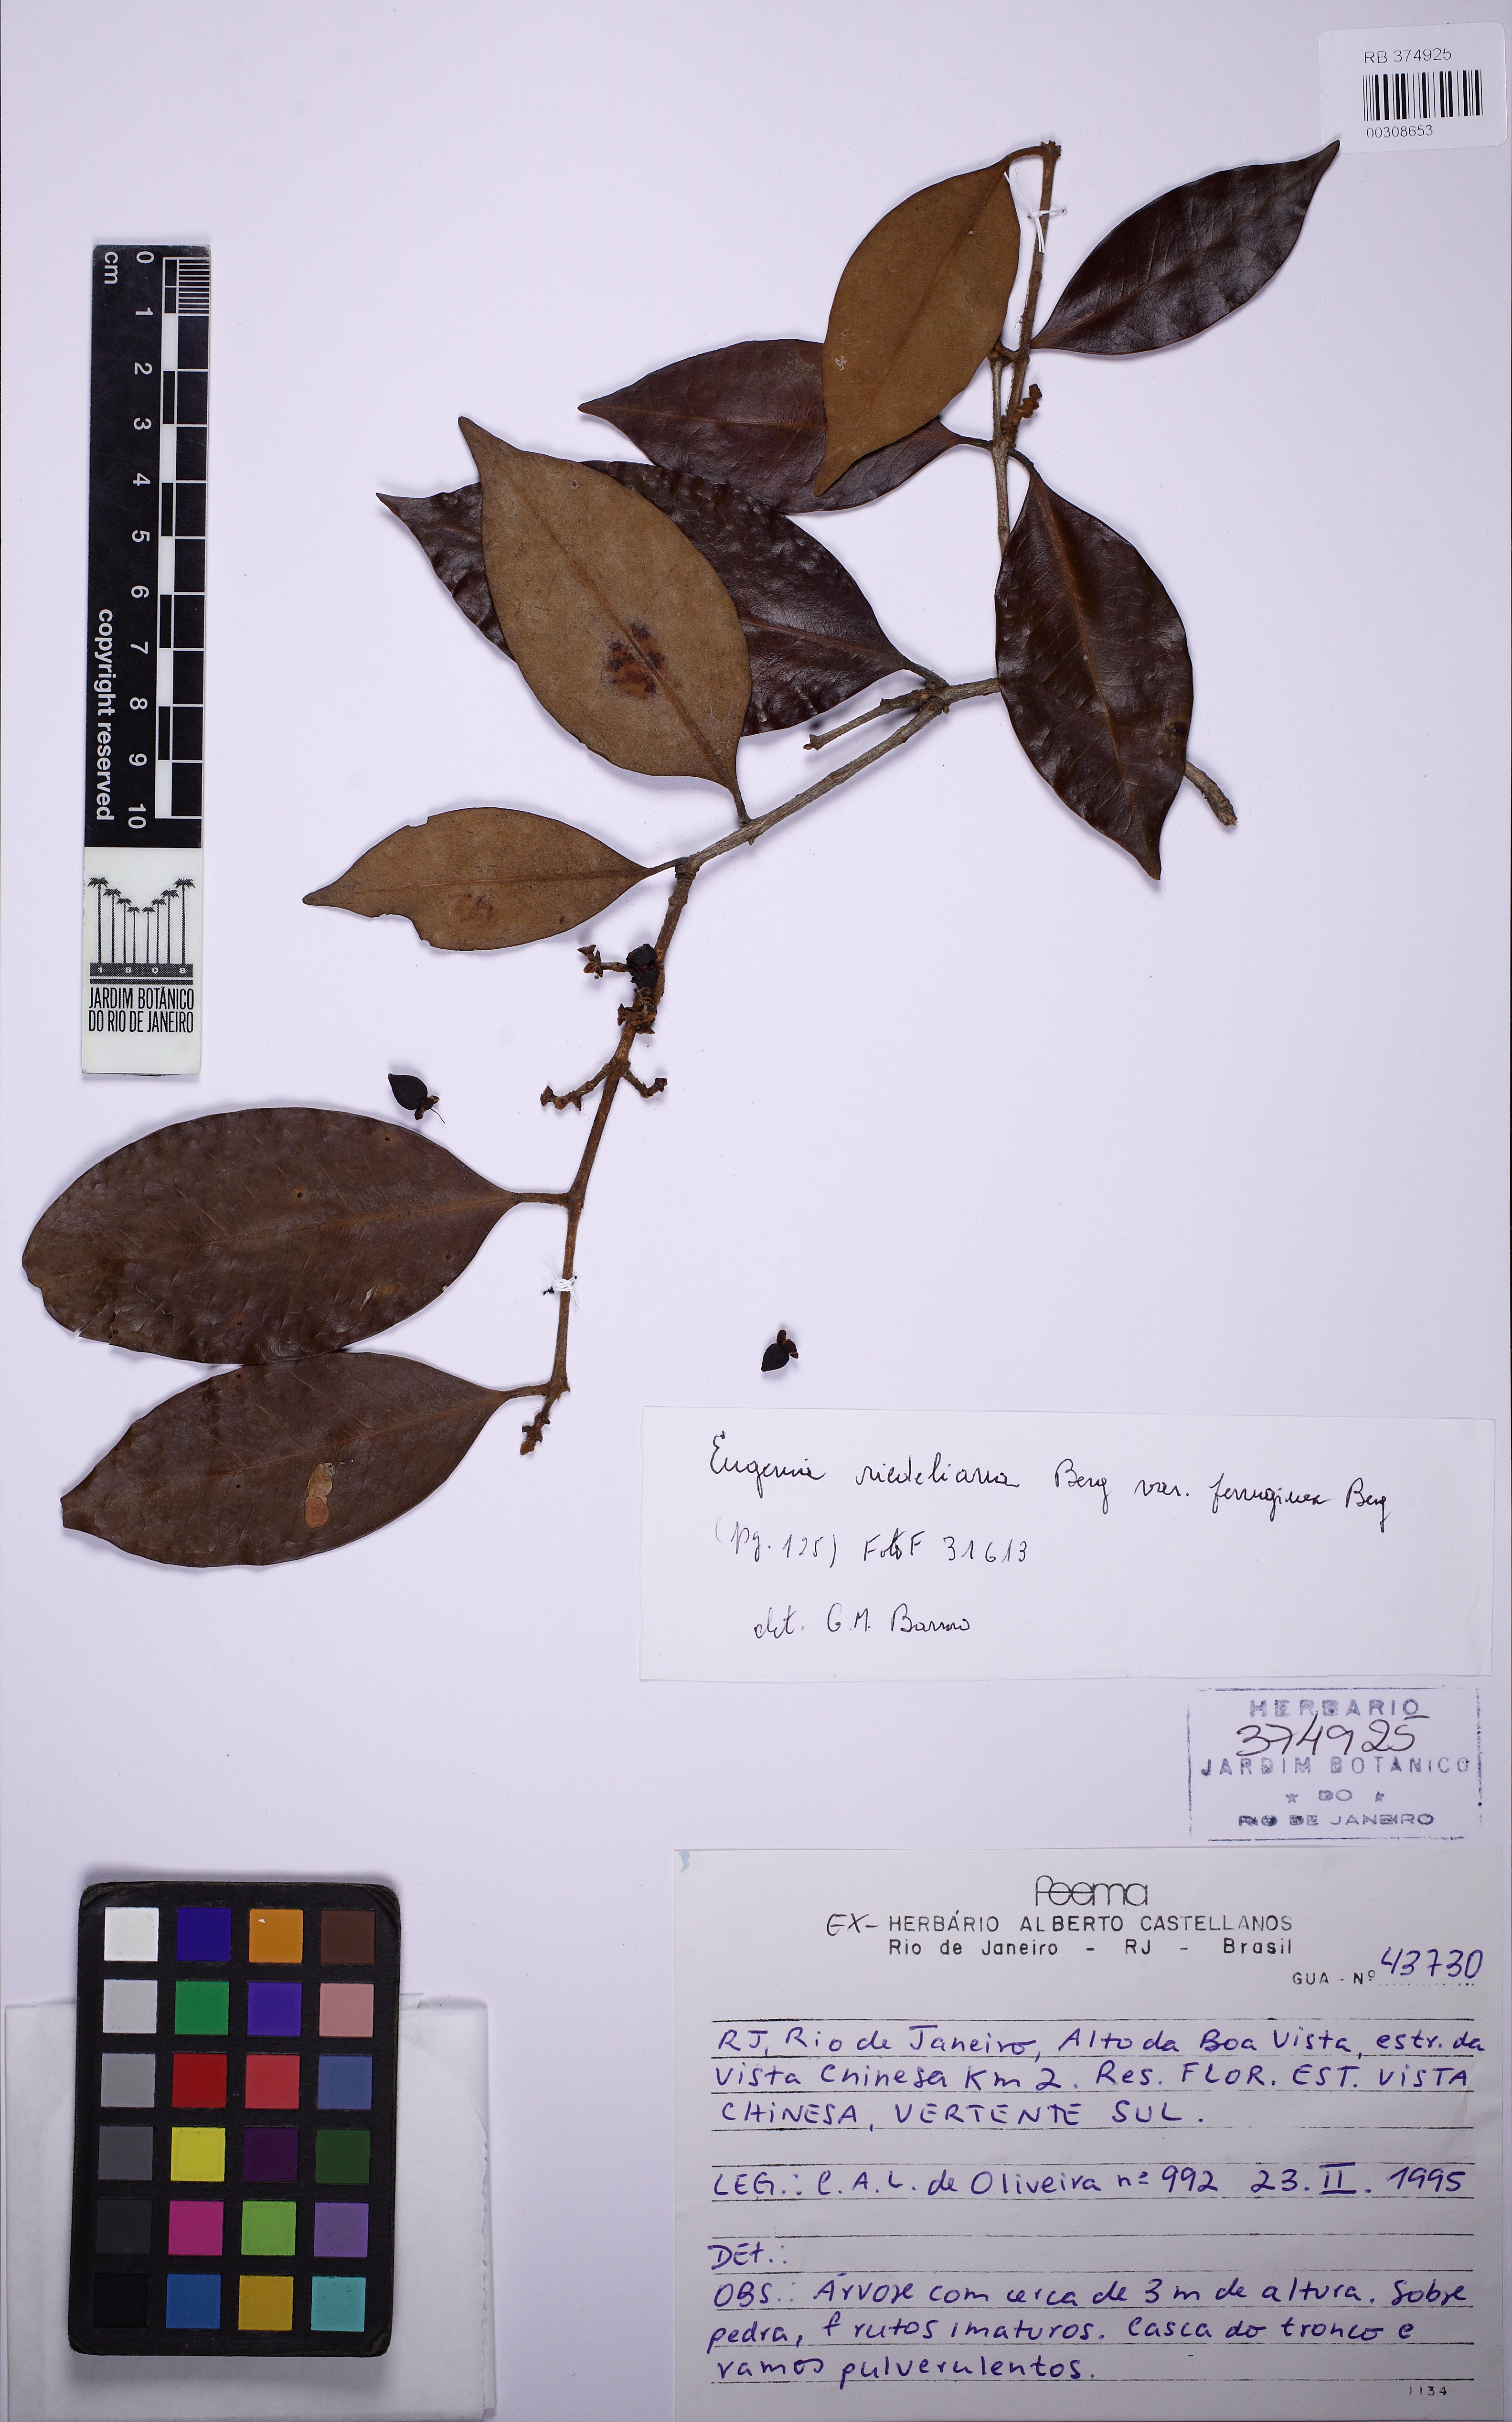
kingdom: Plantae
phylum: Tracheophyta
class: Magnoliopsida
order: Myrtales
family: Myrtaceae
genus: Eugenia
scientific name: Eugenia verticillata
